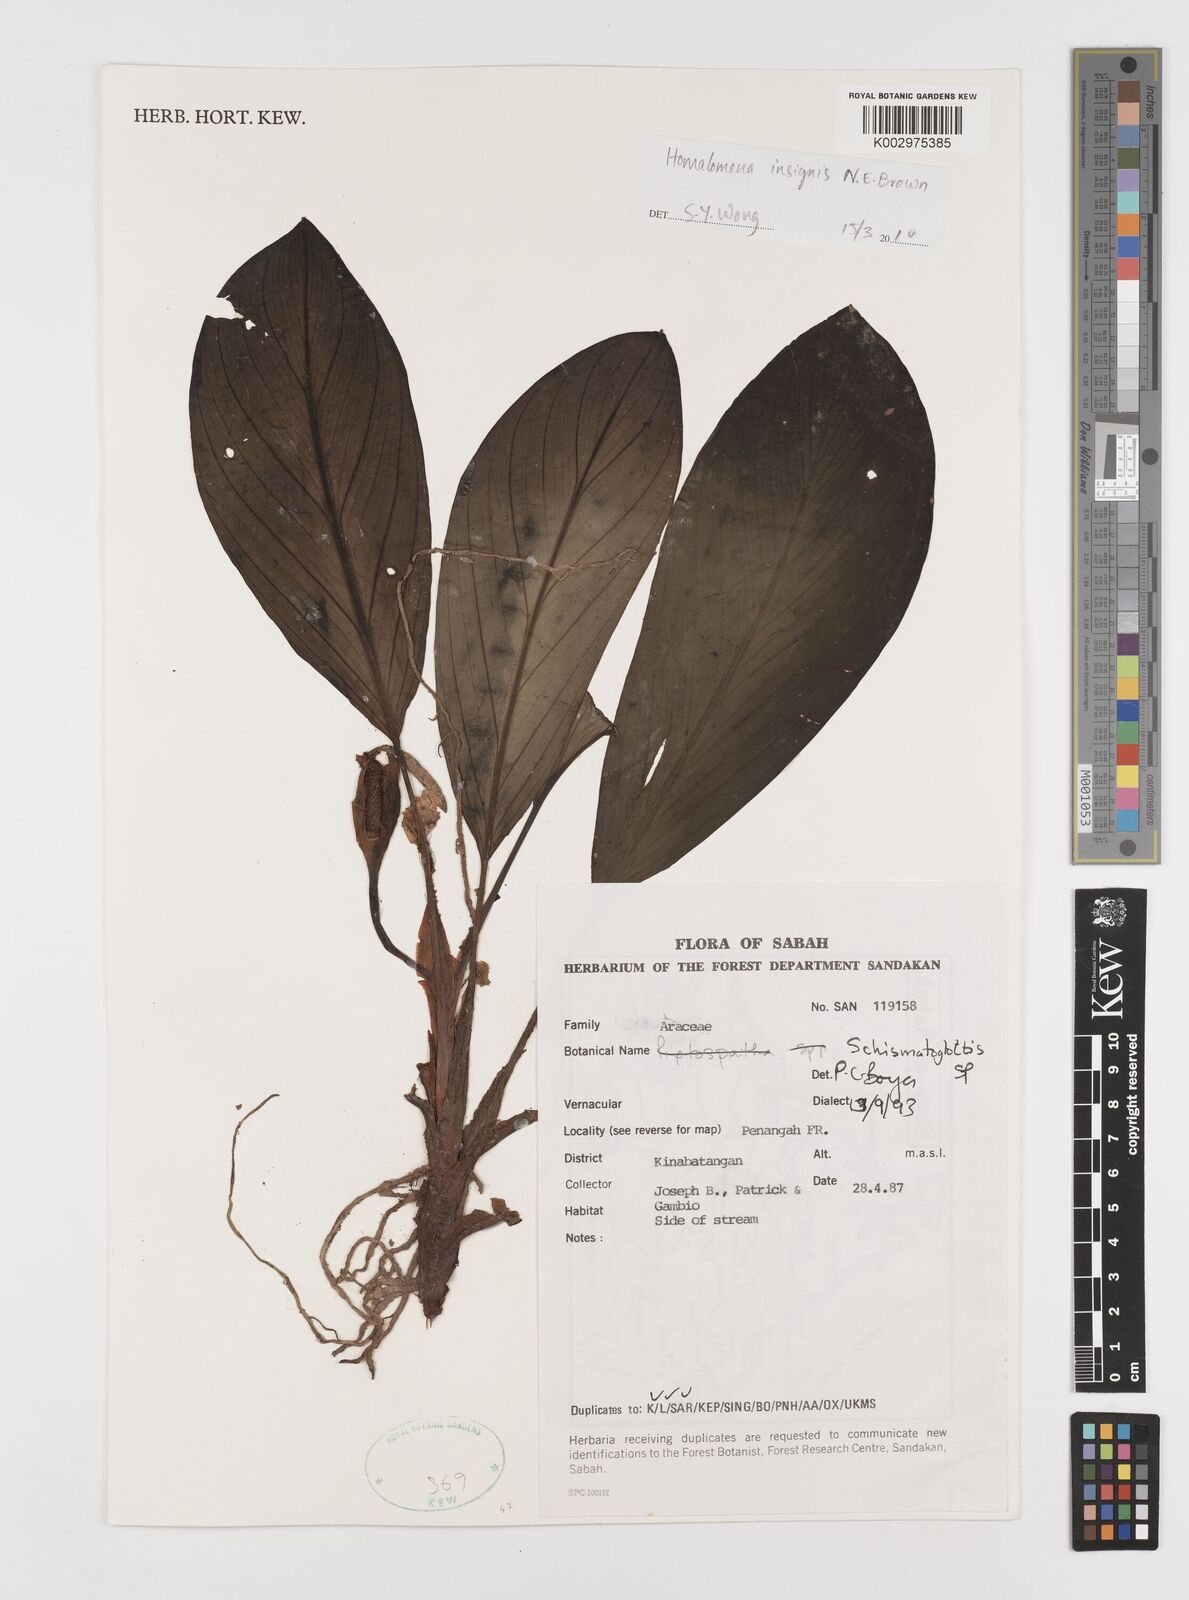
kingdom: Plantae
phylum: Tracheophyta
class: Liliopsida
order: Alismatales
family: Araceae
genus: Homalomena
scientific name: Homalomena insignis
